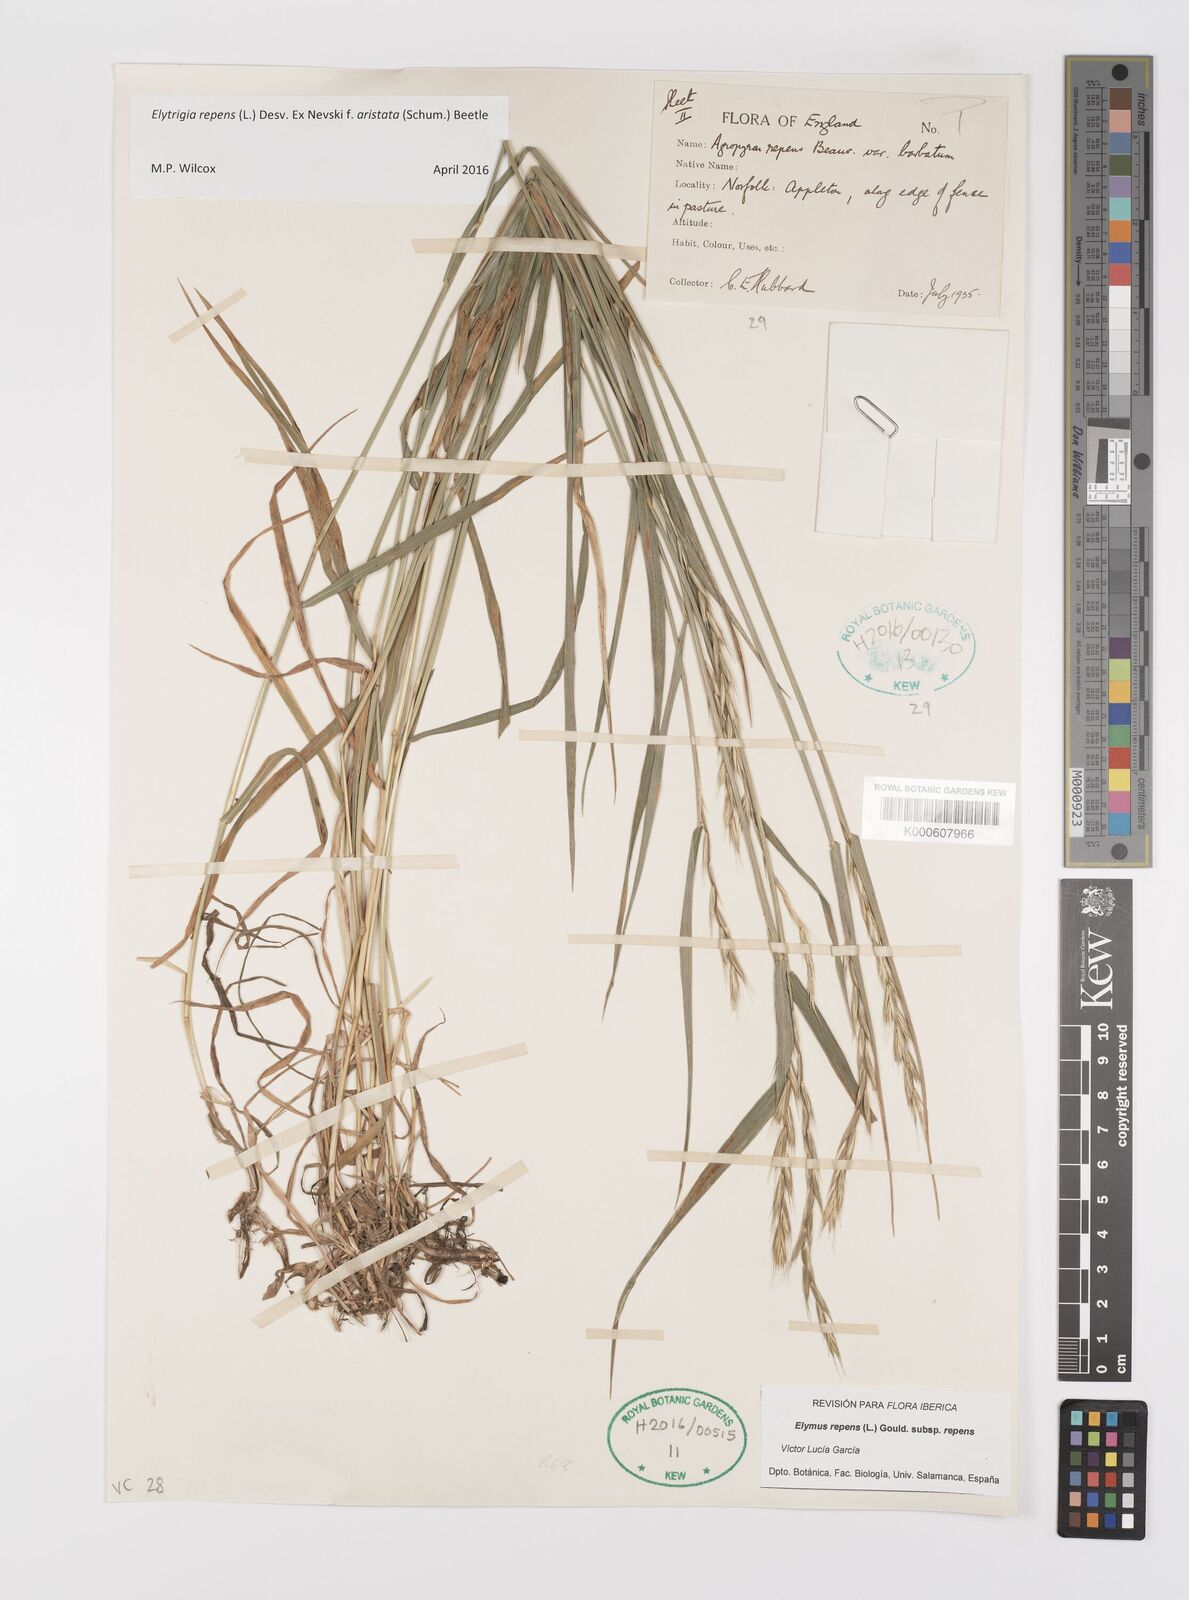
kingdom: Plantae
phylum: Tracheophyta
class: Liliopsida
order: Poales
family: Poaceae
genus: Elymus
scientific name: Elymus repens
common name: Quackgrass
